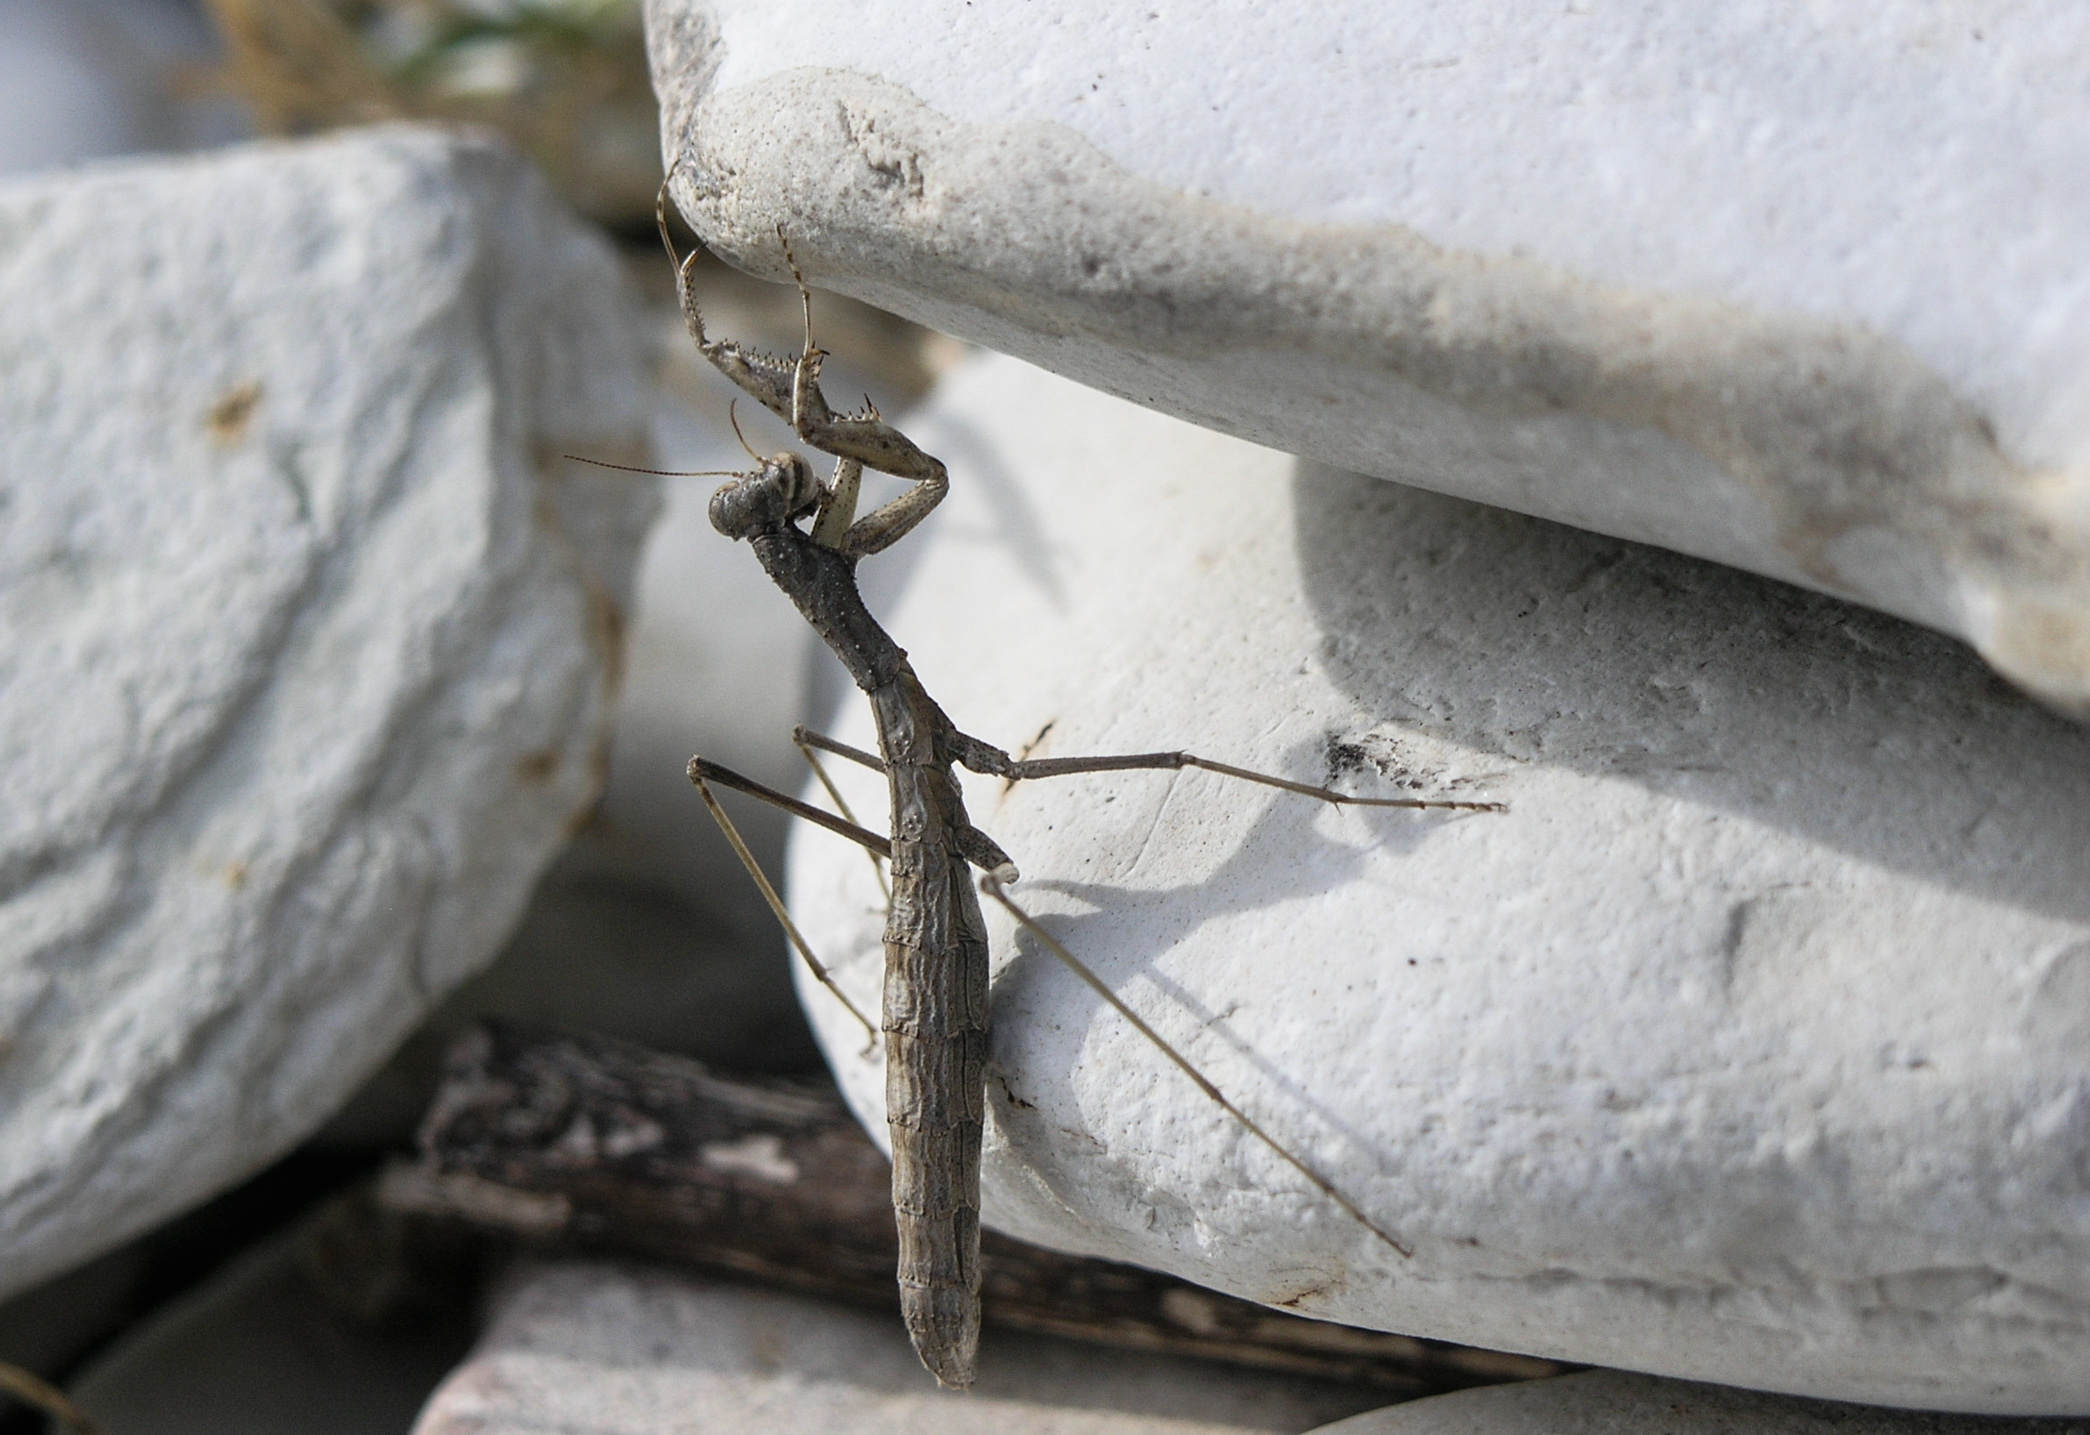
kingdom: Animalia
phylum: Arthropoda
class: Insecta
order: Mantodea
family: Amelidae
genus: Ameles
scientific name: Ameles decolor
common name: Dwarf mantis
